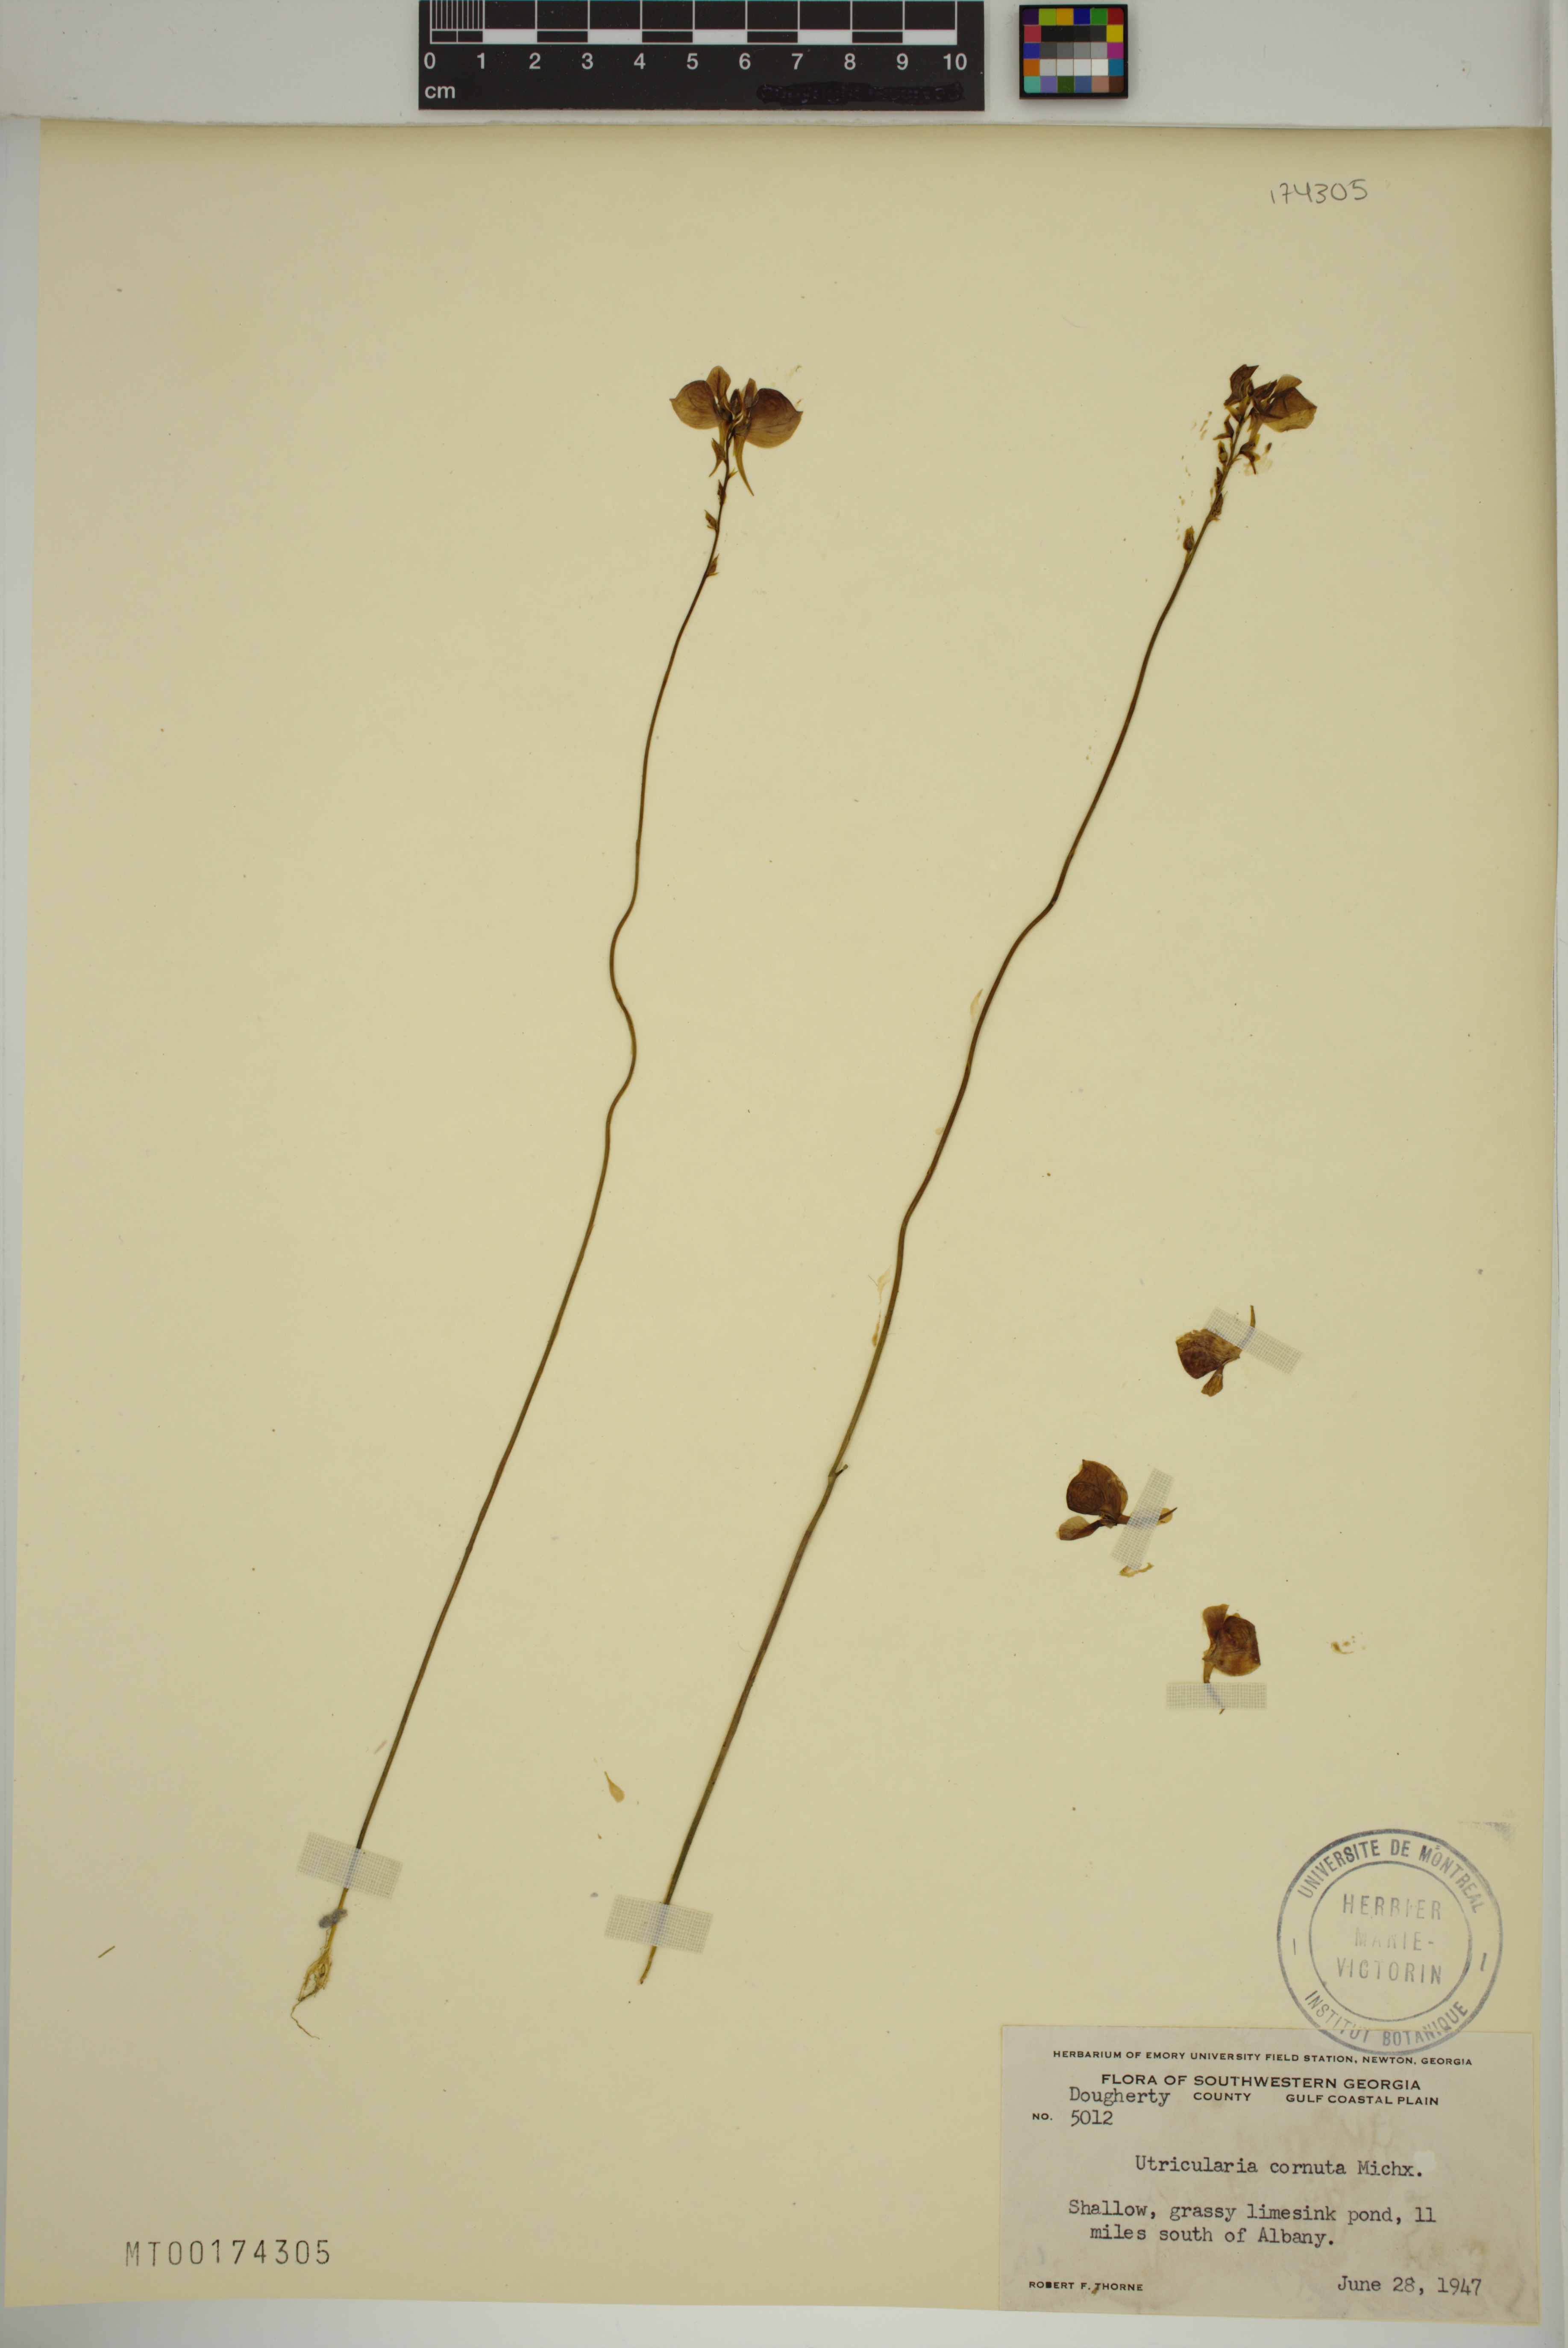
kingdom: Plantae
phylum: Tracheophyta
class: Magnoliopsida
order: Lamiales
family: Lentibulariaceae
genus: Utricularia
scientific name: Utricularia cornuta
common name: Horned bladderwort
